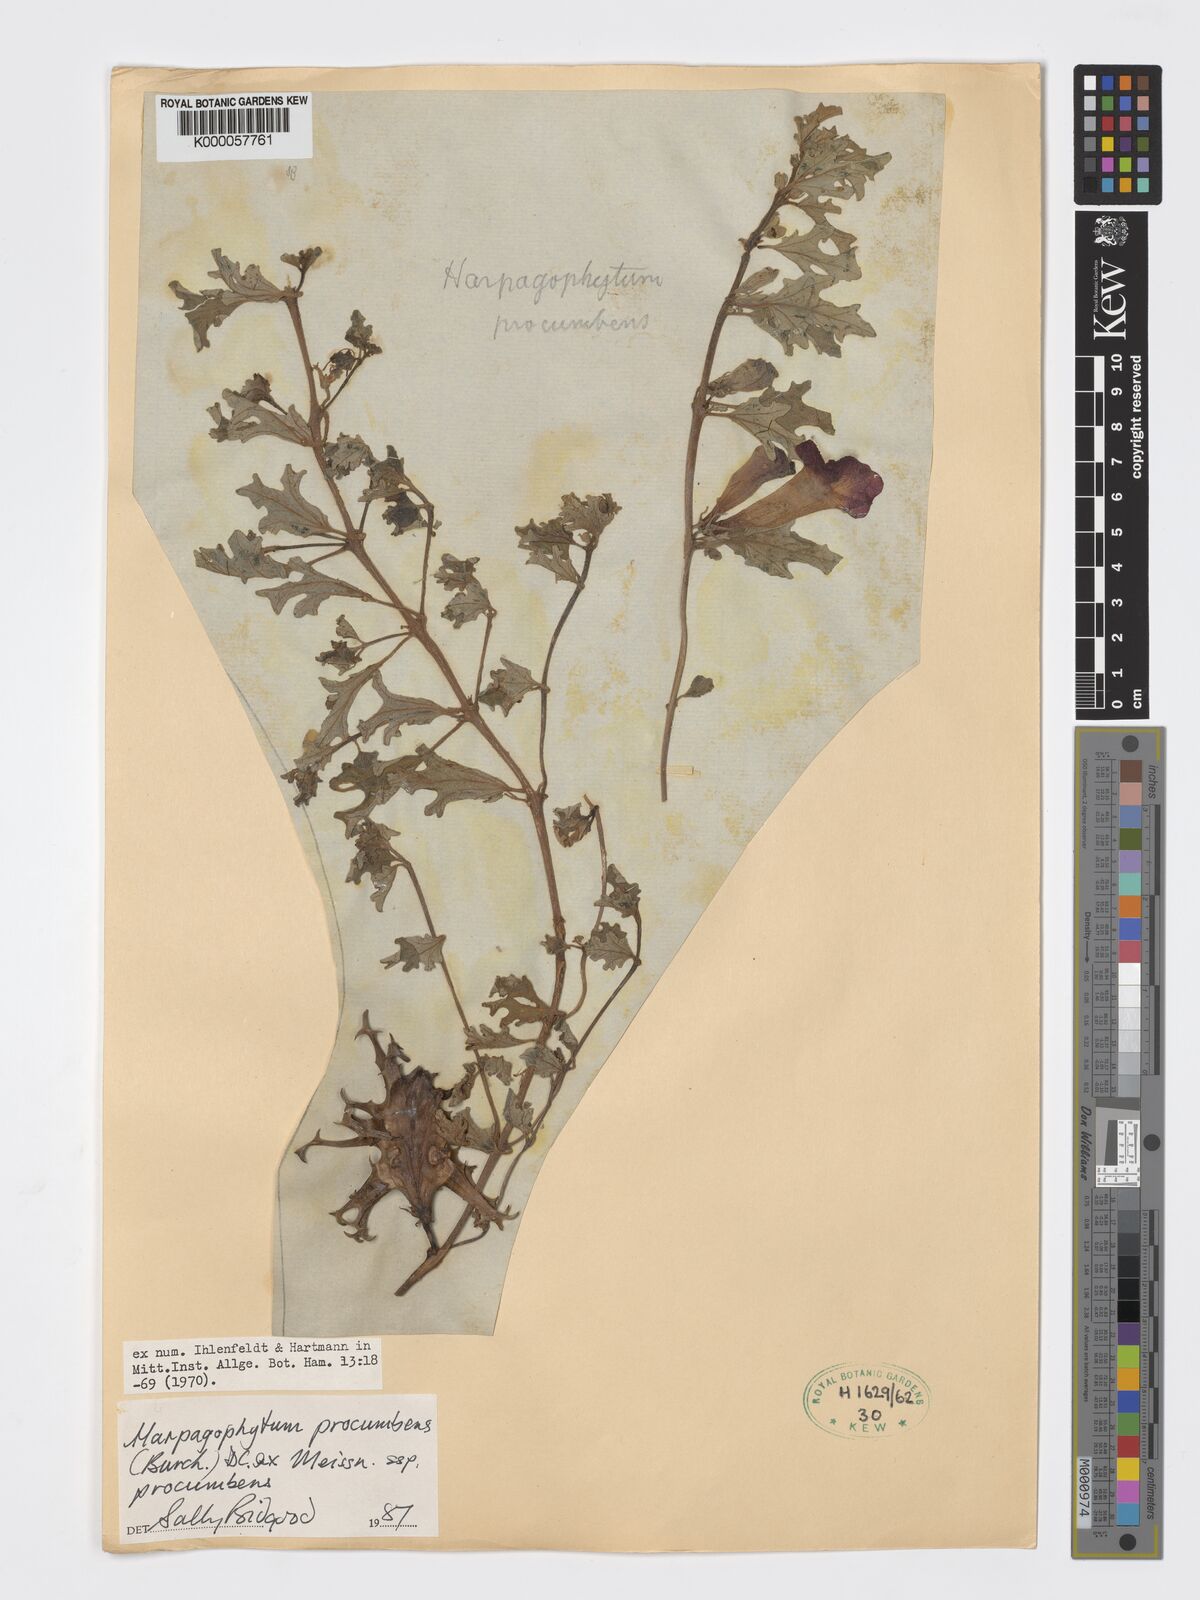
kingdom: Plantae
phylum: Tracheophyta
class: Magnoliopsida
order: Lamiales
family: Pedaliaceae
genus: Harpagophytum
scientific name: Harpagophytum procumbens
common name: Grappleplant
